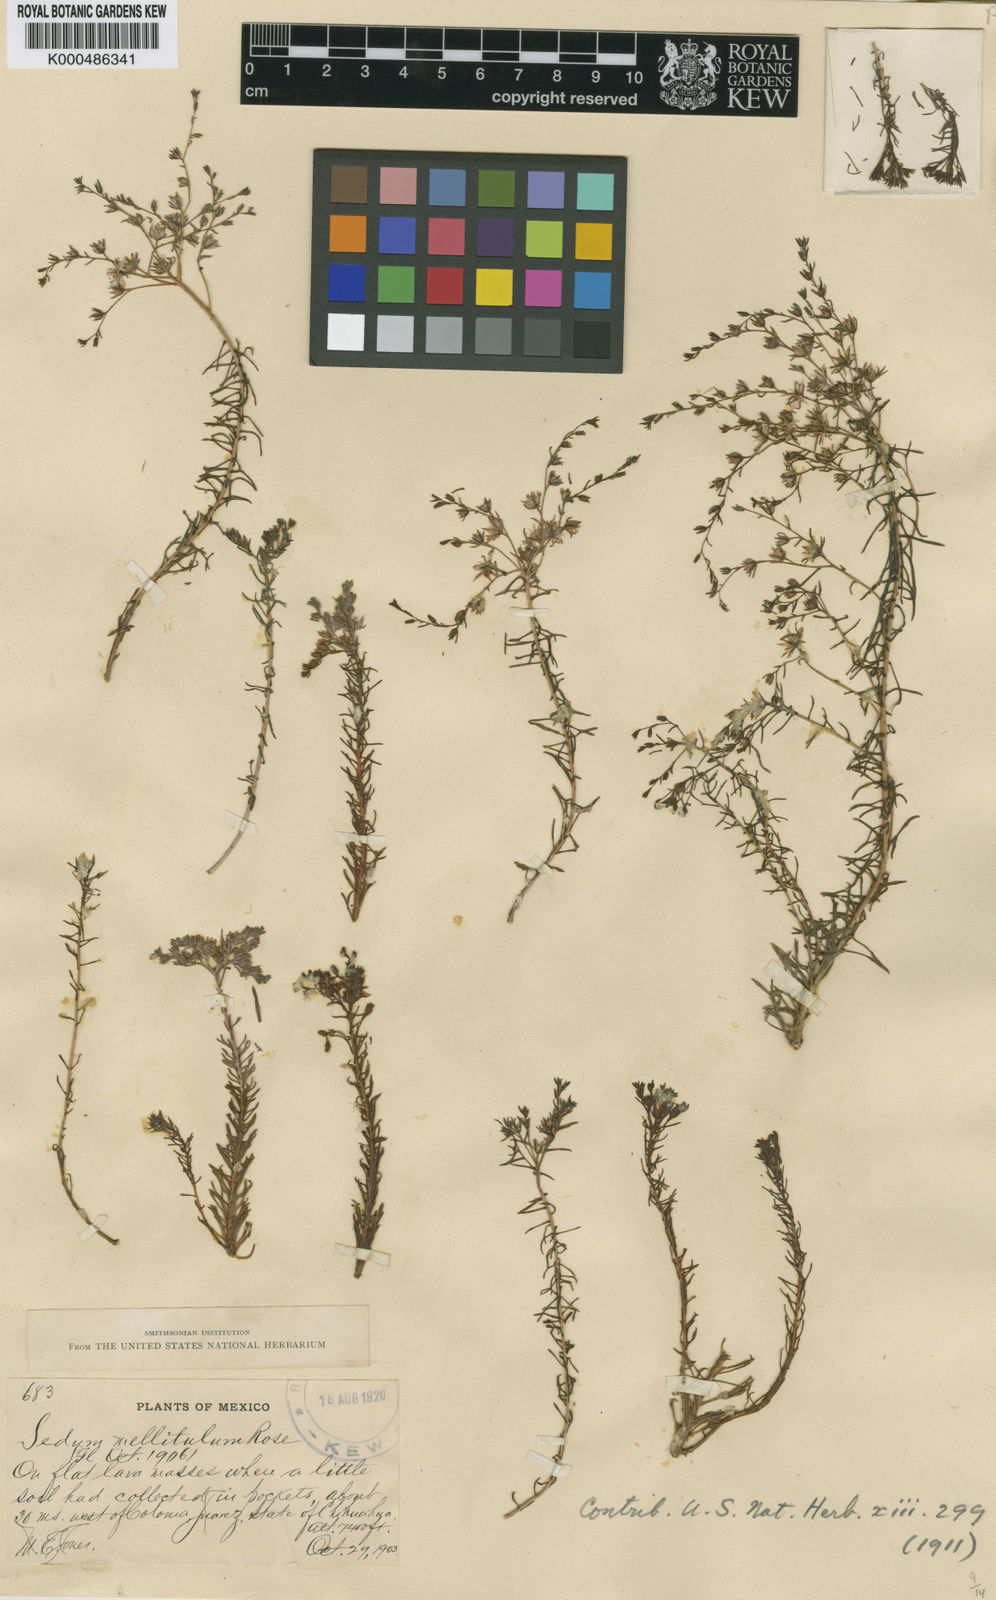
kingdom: Plantae
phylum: Tracheophyta
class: Magnoliopsida
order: Saxifragales
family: Crassulaceae
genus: Sedum
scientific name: Sedum mellitulum
